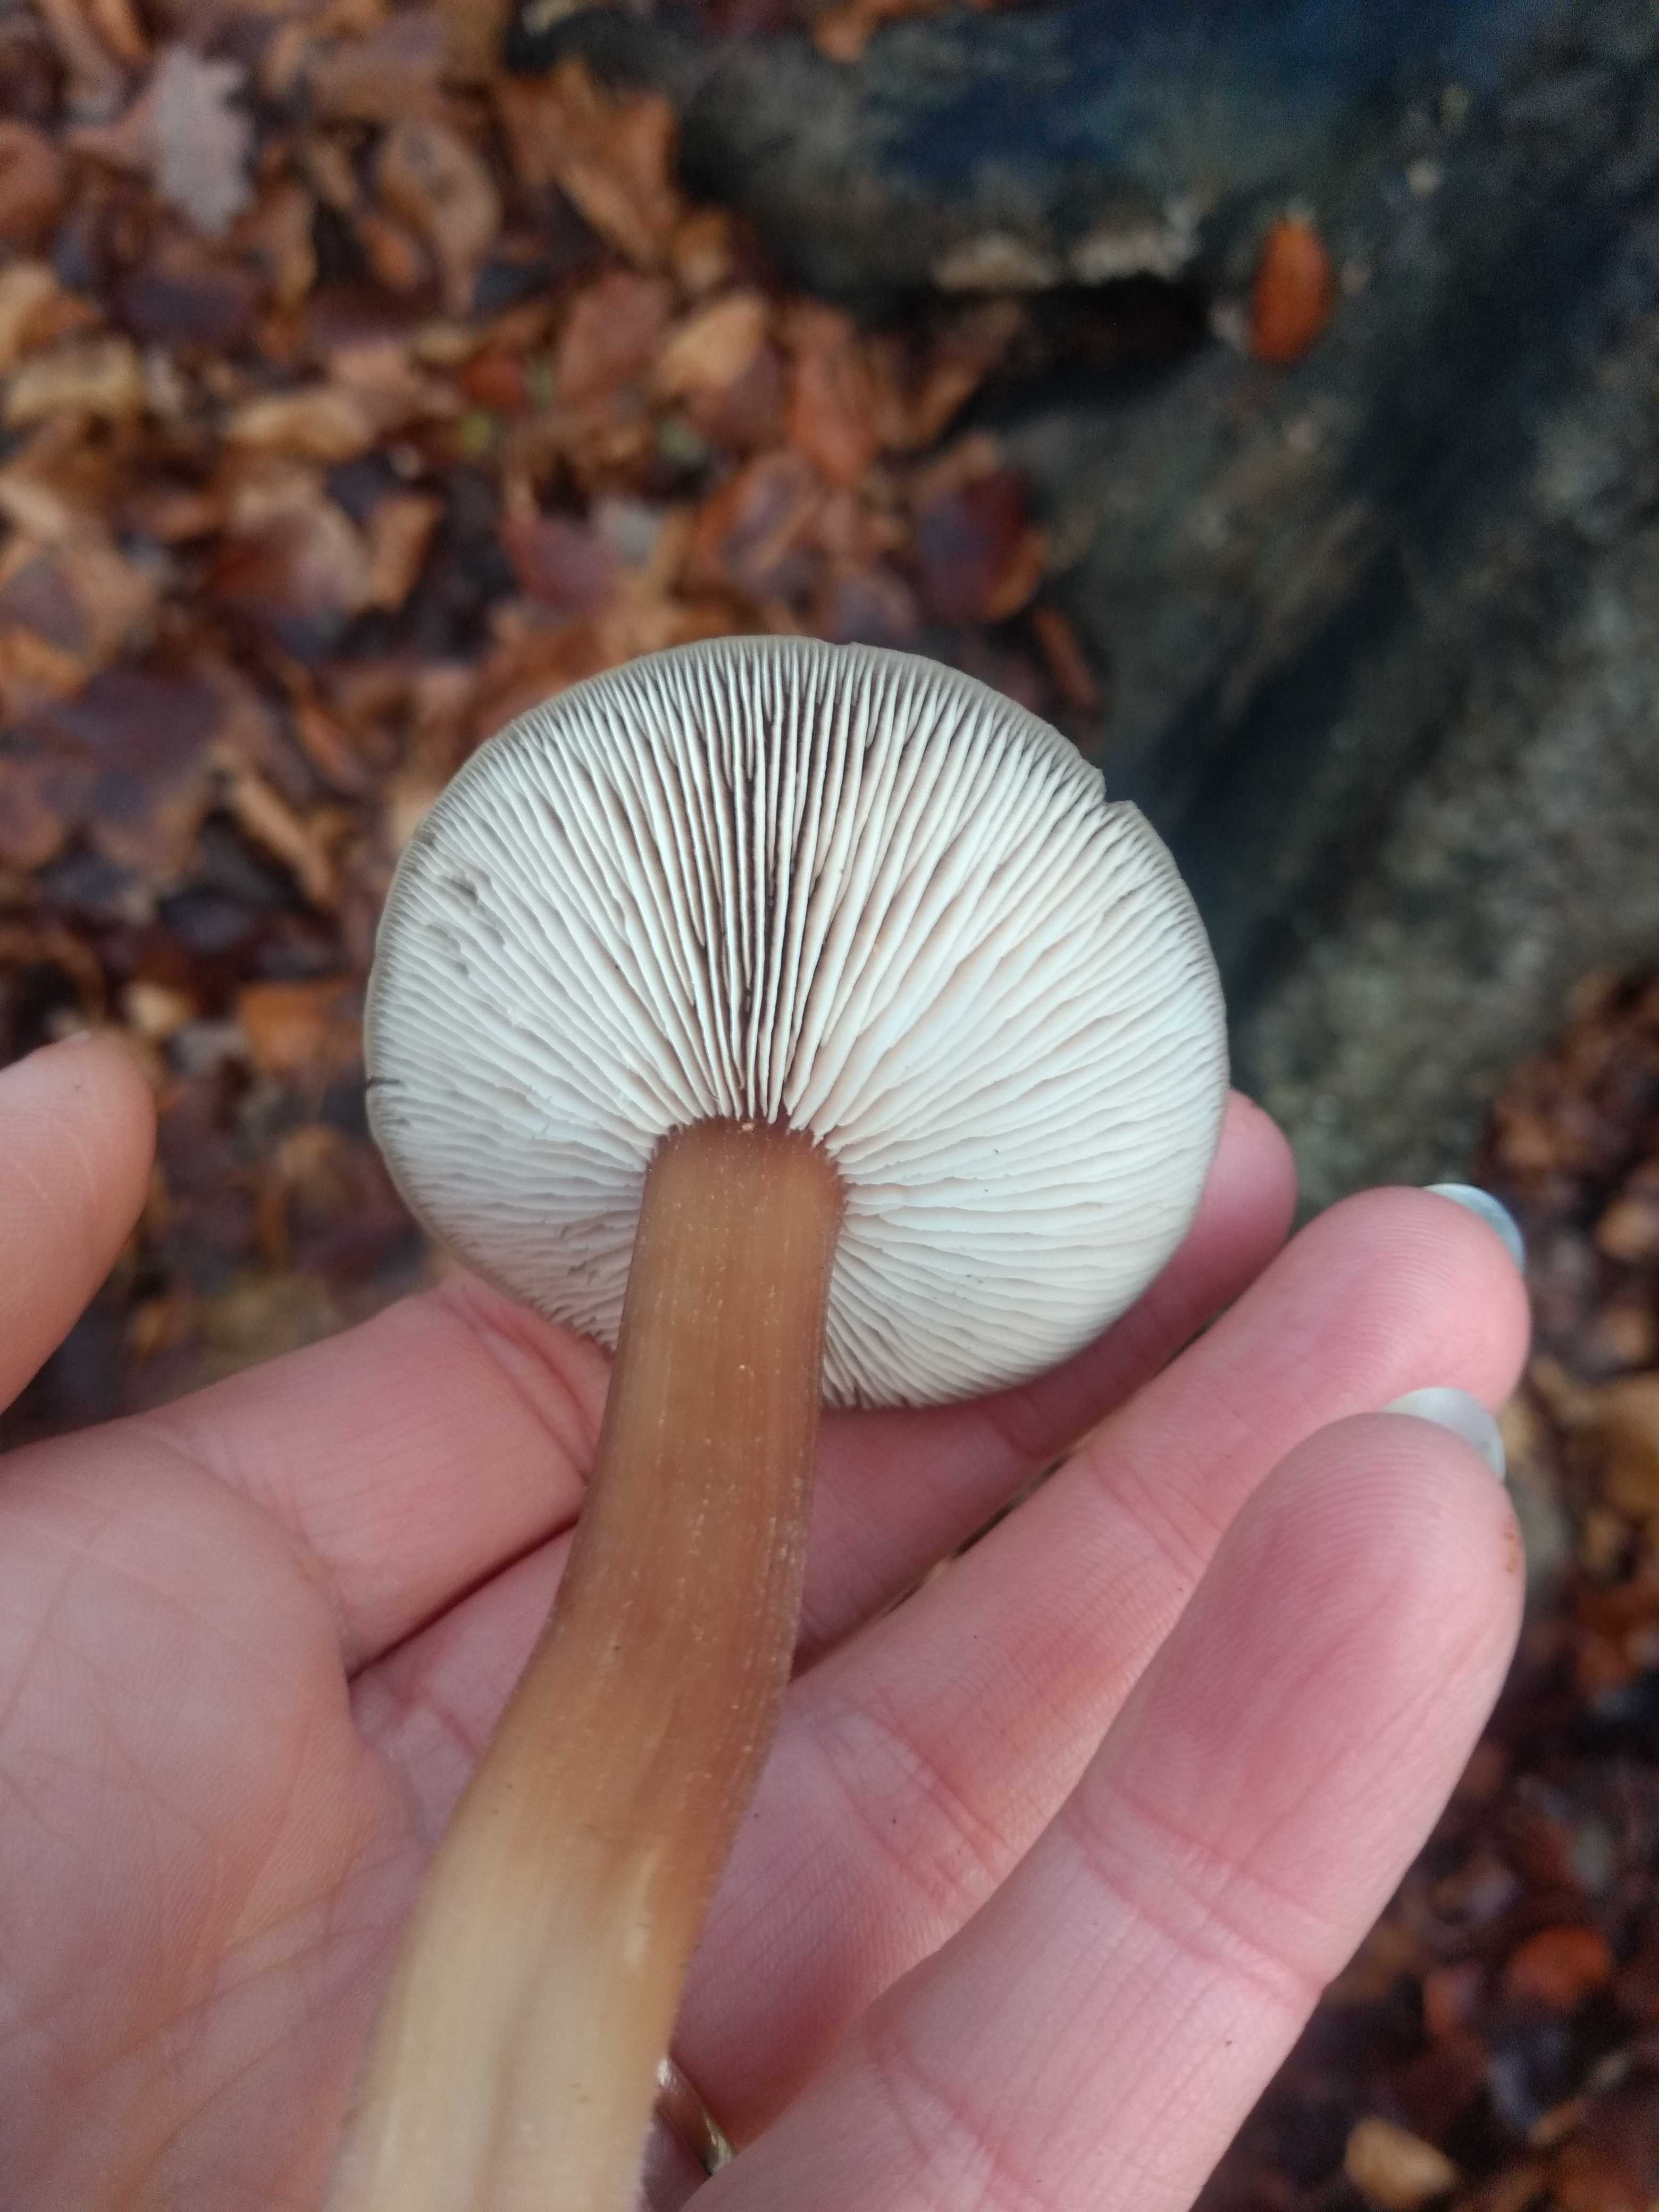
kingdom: Fungi
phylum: Basidiomycota
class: Agaricomycetes
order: Agaricales
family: Omphalotaceae
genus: Rhodocollybia
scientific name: Rhodocollybia asema
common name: horngrå fladhat
